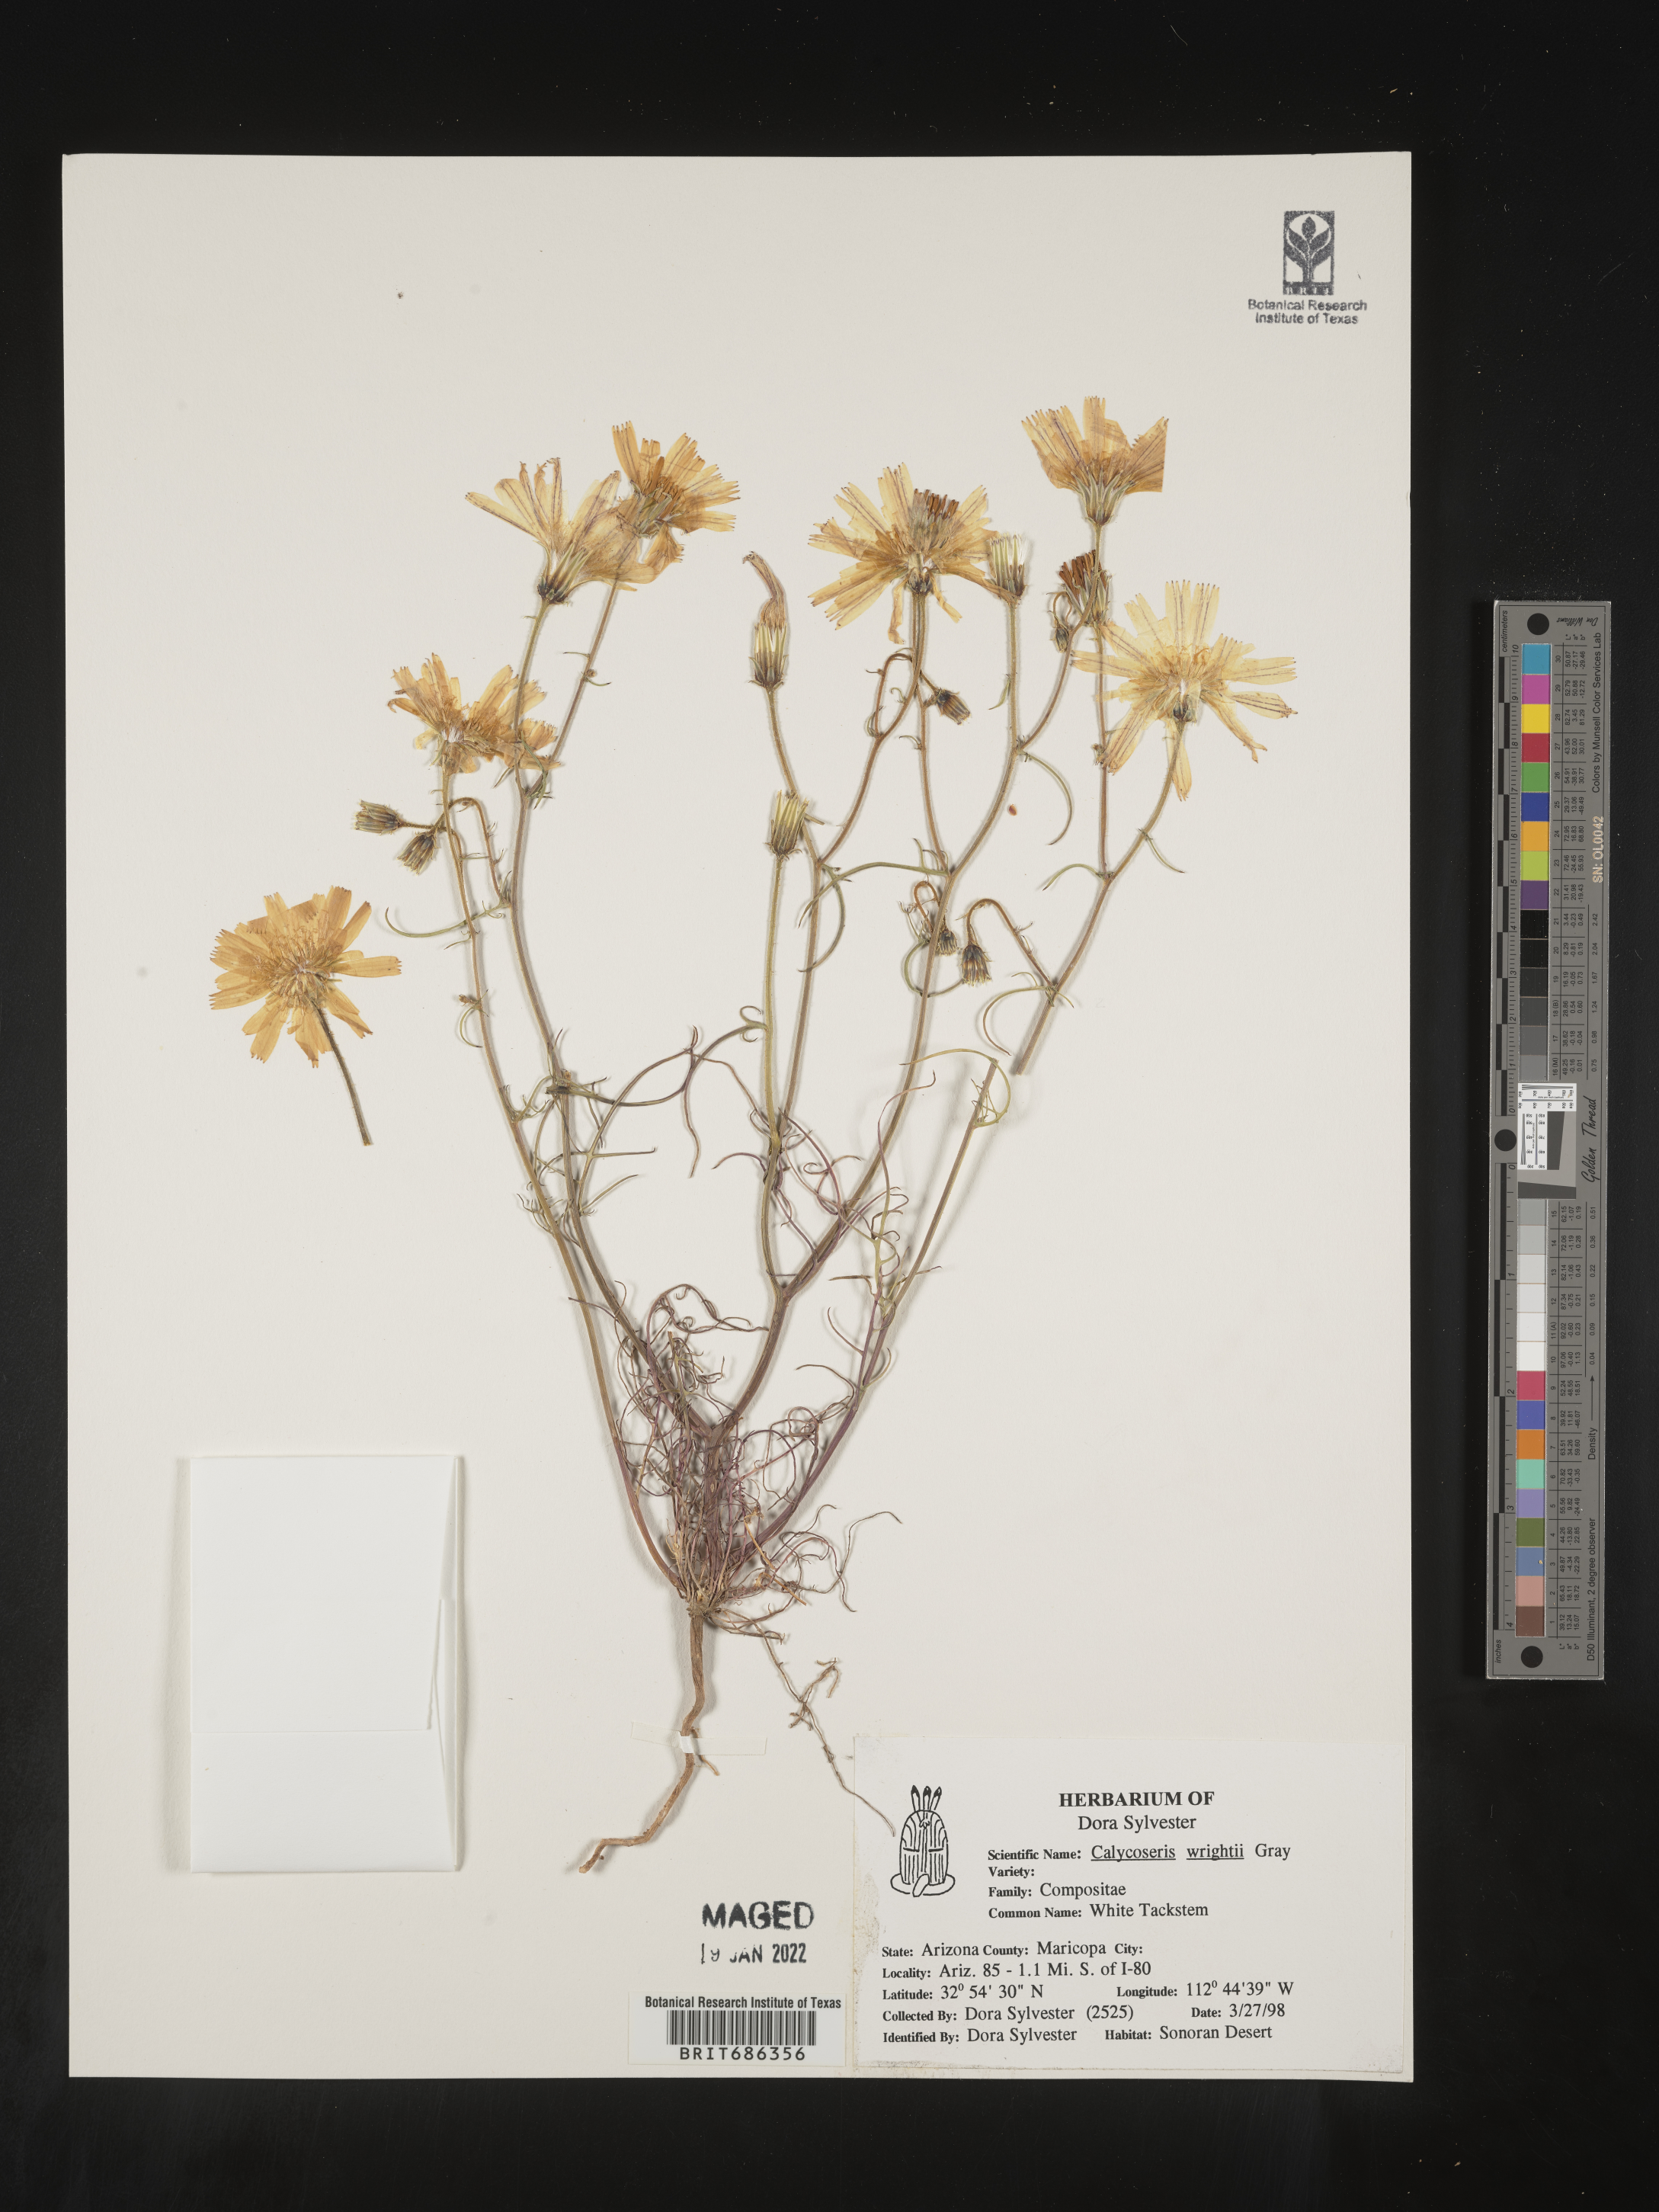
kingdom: Plantae
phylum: Tracheophyta
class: Magnoliopsida
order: Asterales
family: Asteraceae
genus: Calycoseris
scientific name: Calycoseris
